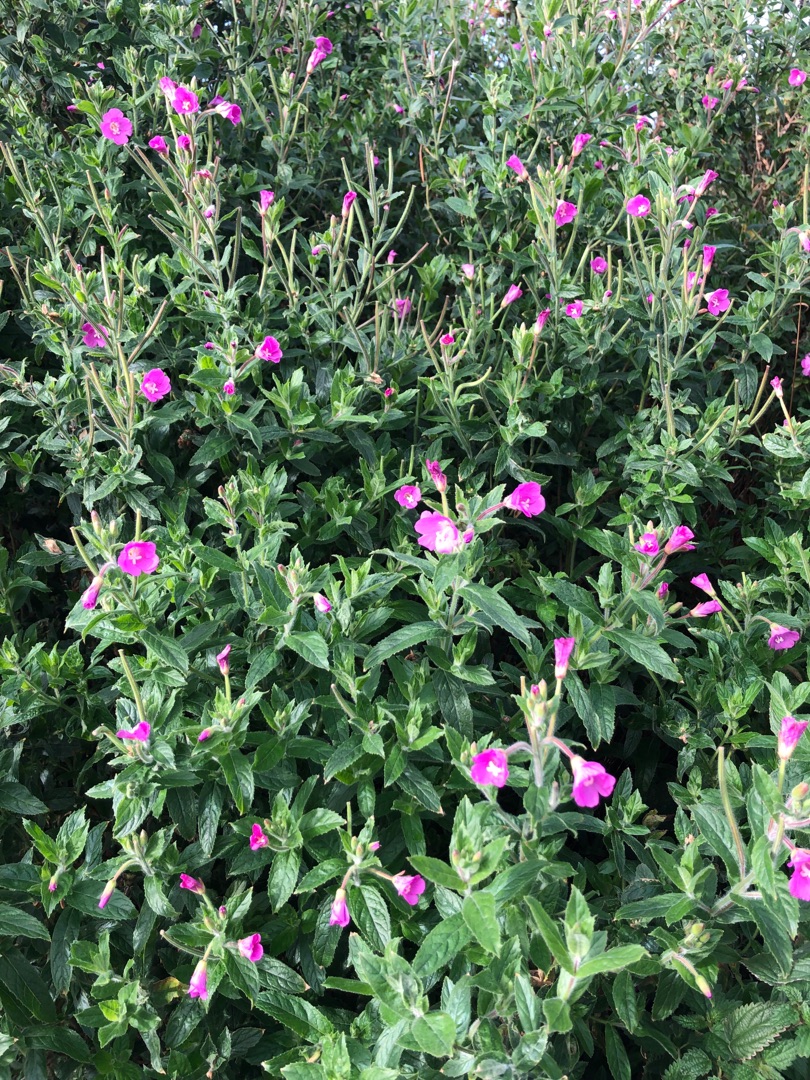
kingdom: Plantae
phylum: Tracheophyta
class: Magnoliopsida
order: Myrtales
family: Onagraceae
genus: Epilobium
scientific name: Epilobium hirsutum
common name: Lådden dueurt
